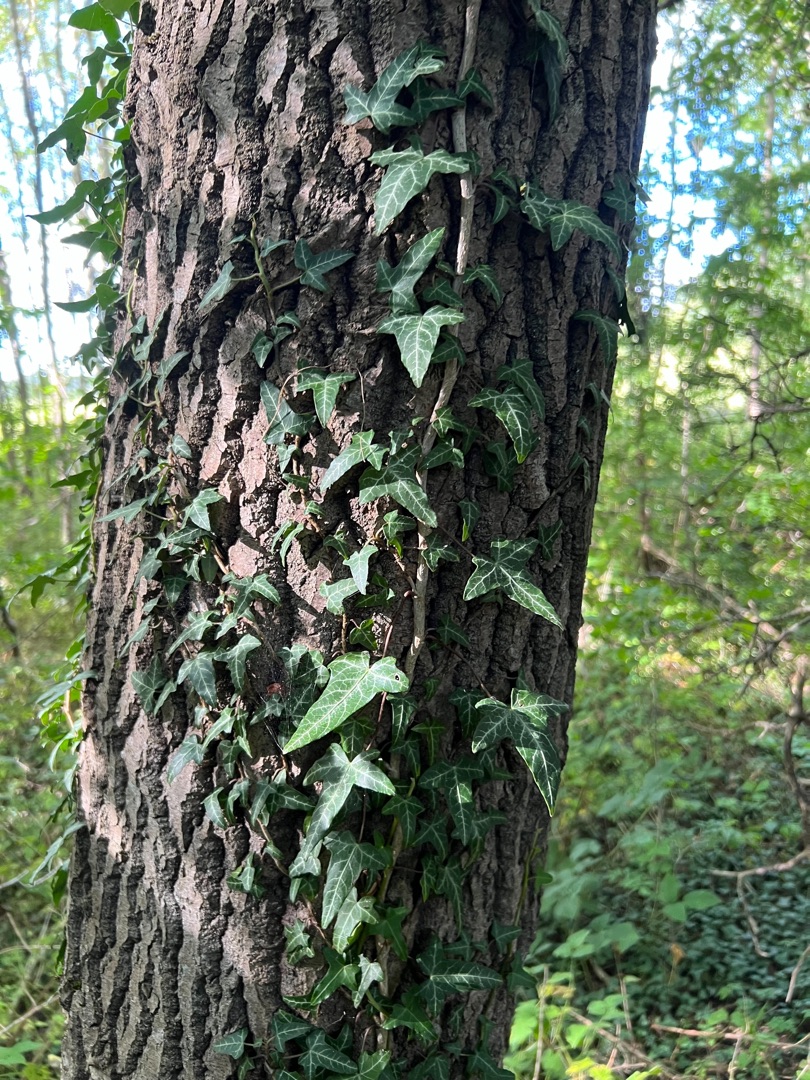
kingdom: Plantae
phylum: Tracheophyta
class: Magnoliopsida
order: Apiales
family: Araliaceae
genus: Hedera
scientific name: Hedera helix
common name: Vedbend
